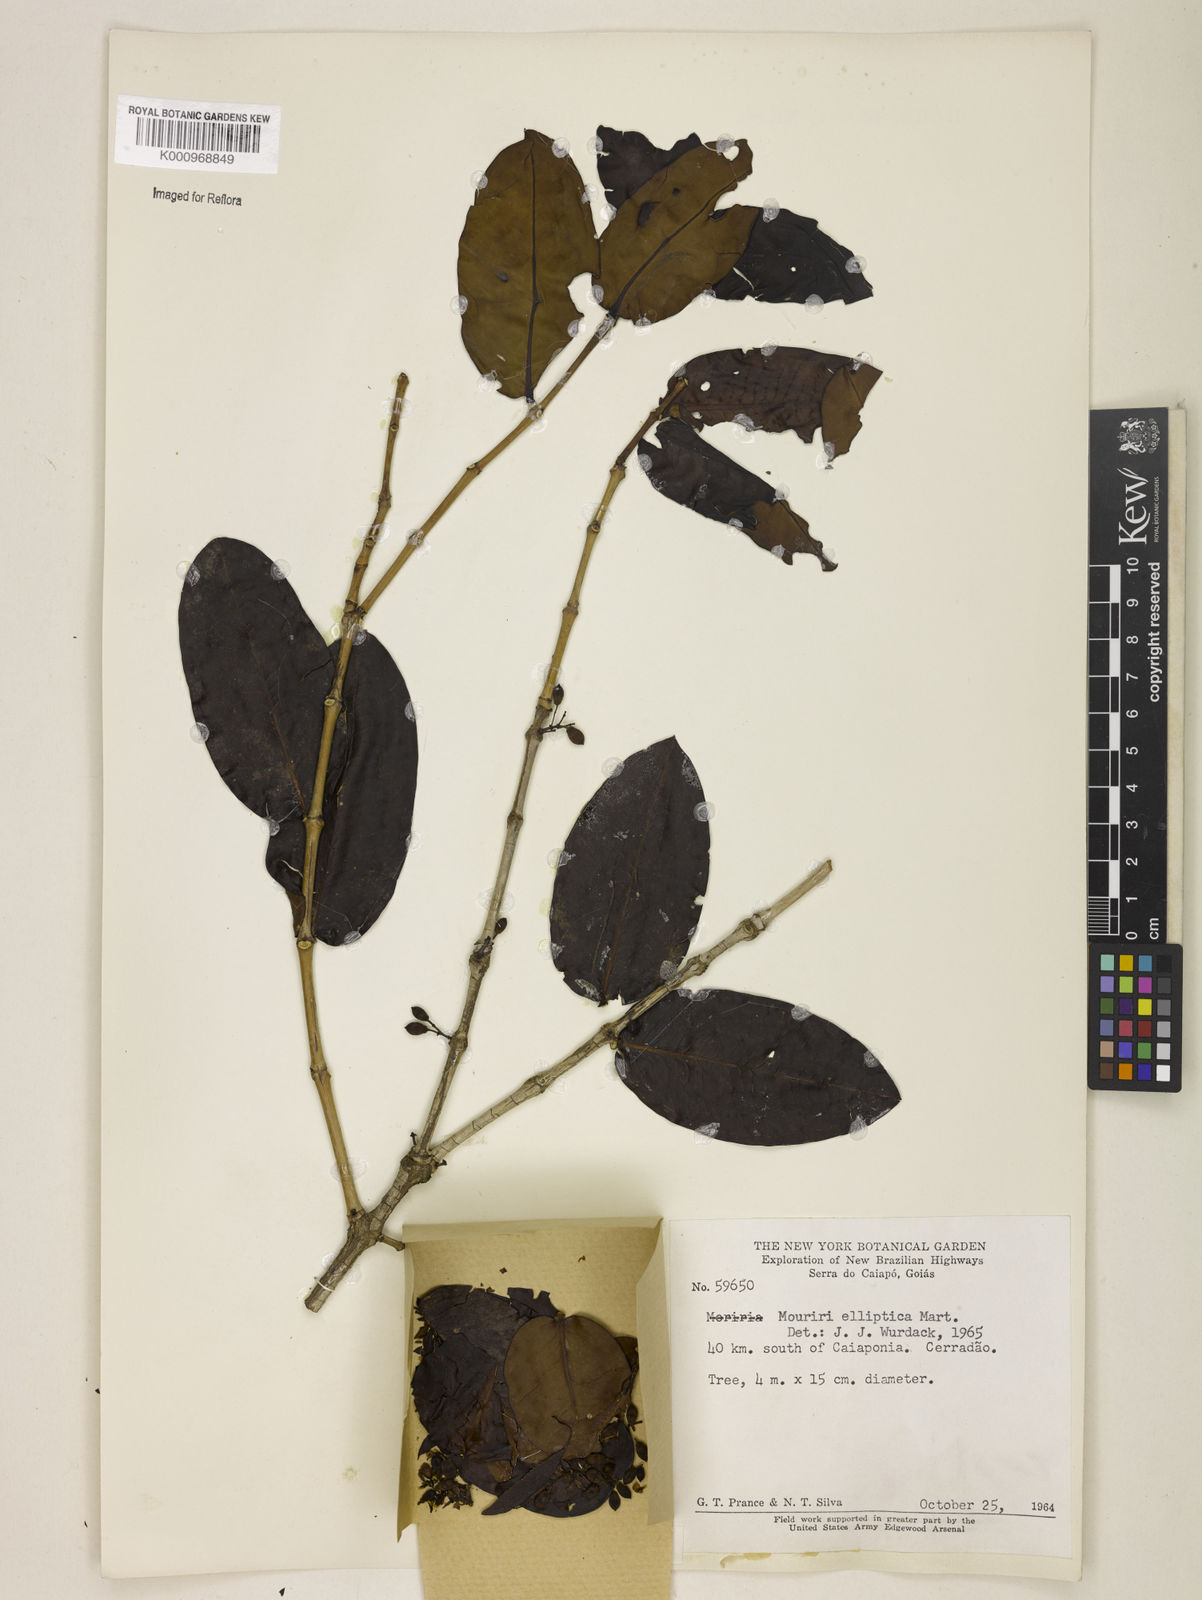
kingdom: Plantae
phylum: Tracheophyta
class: Magnoliopsida
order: Myrtales
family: Melastomataceae
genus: Mouriri
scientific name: Mouriri elliptica
